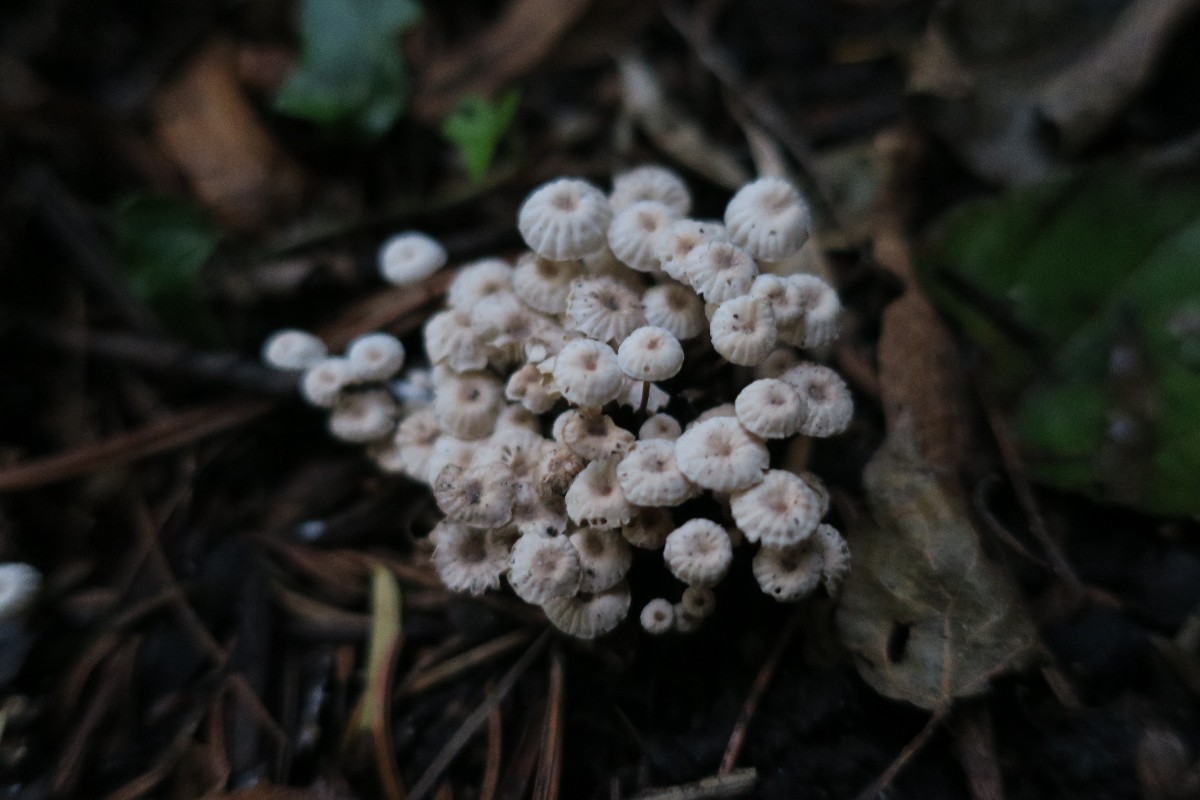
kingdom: Fungi
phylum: Basidiomycota
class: Agaricomycetes
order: Agaricales
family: Marasmiaceae
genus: Marasmius
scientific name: Marasmius rotula
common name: hjul-bruskhat
